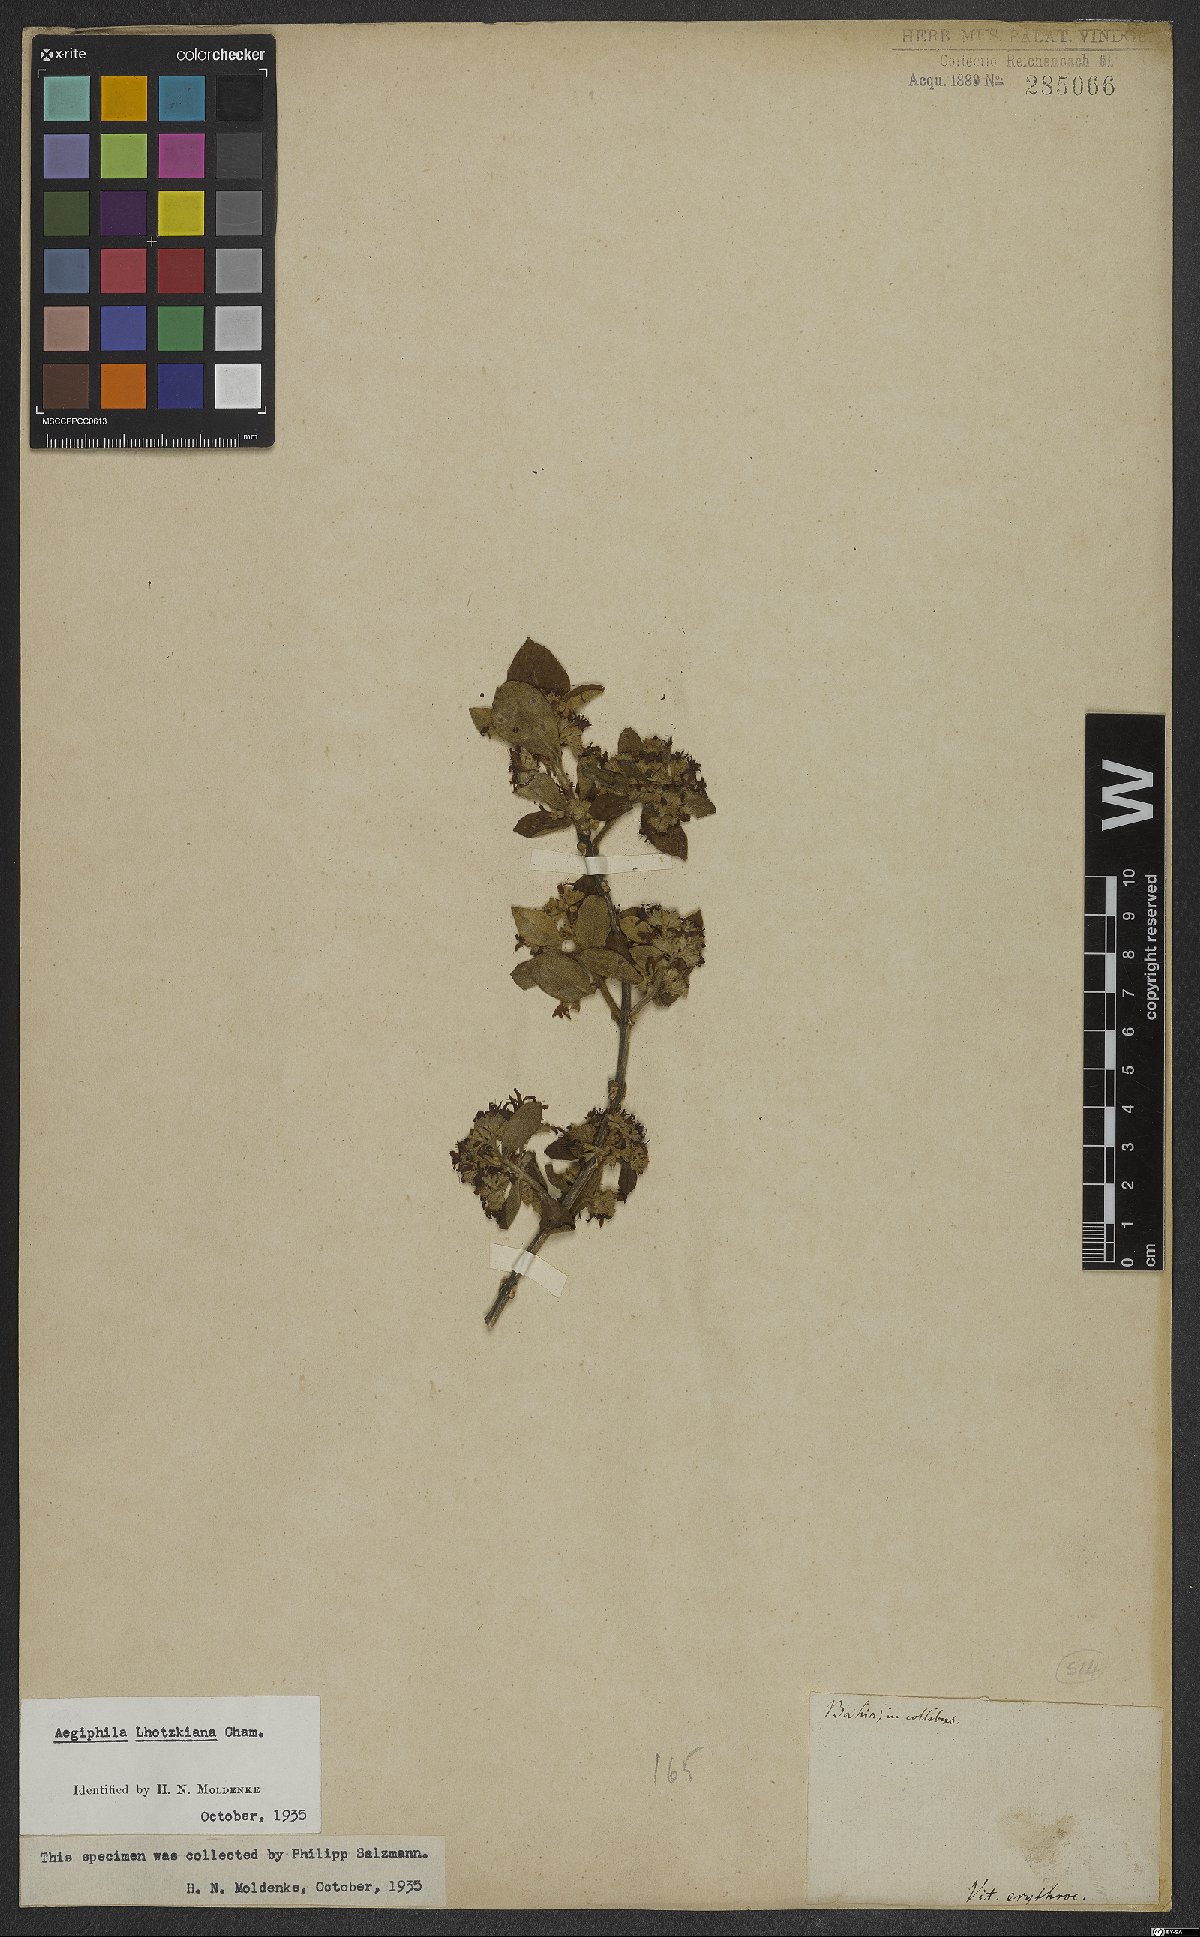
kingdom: Plantae
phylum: Tracheophyta
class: Magnoliopsida
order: Lamiales
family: Lamiaceae
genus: Aegiphila
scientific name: Aegiphila lhotskiana
